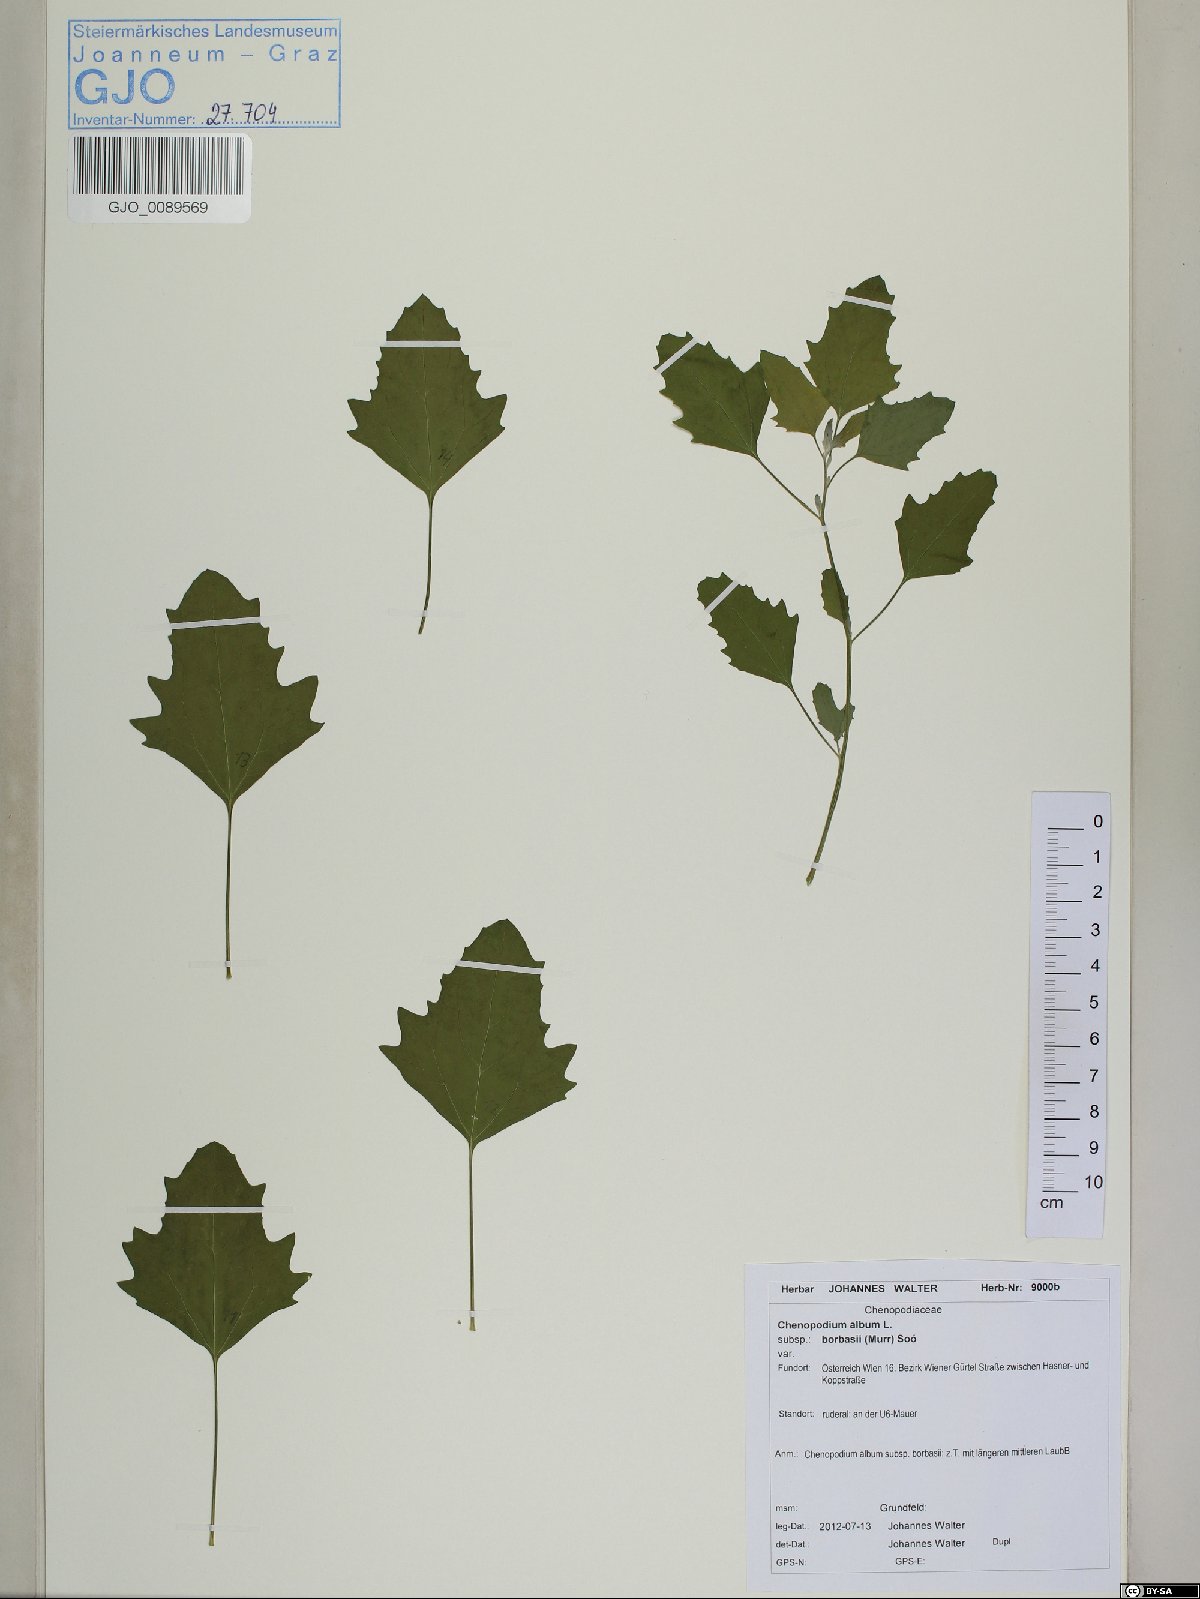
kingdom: Plantae
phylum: Tracheophyta
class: Magnoliopsida
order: Caryophyllales
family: Amaranthaceae
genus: Chenopodium
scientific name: Chenopodium borbasii
